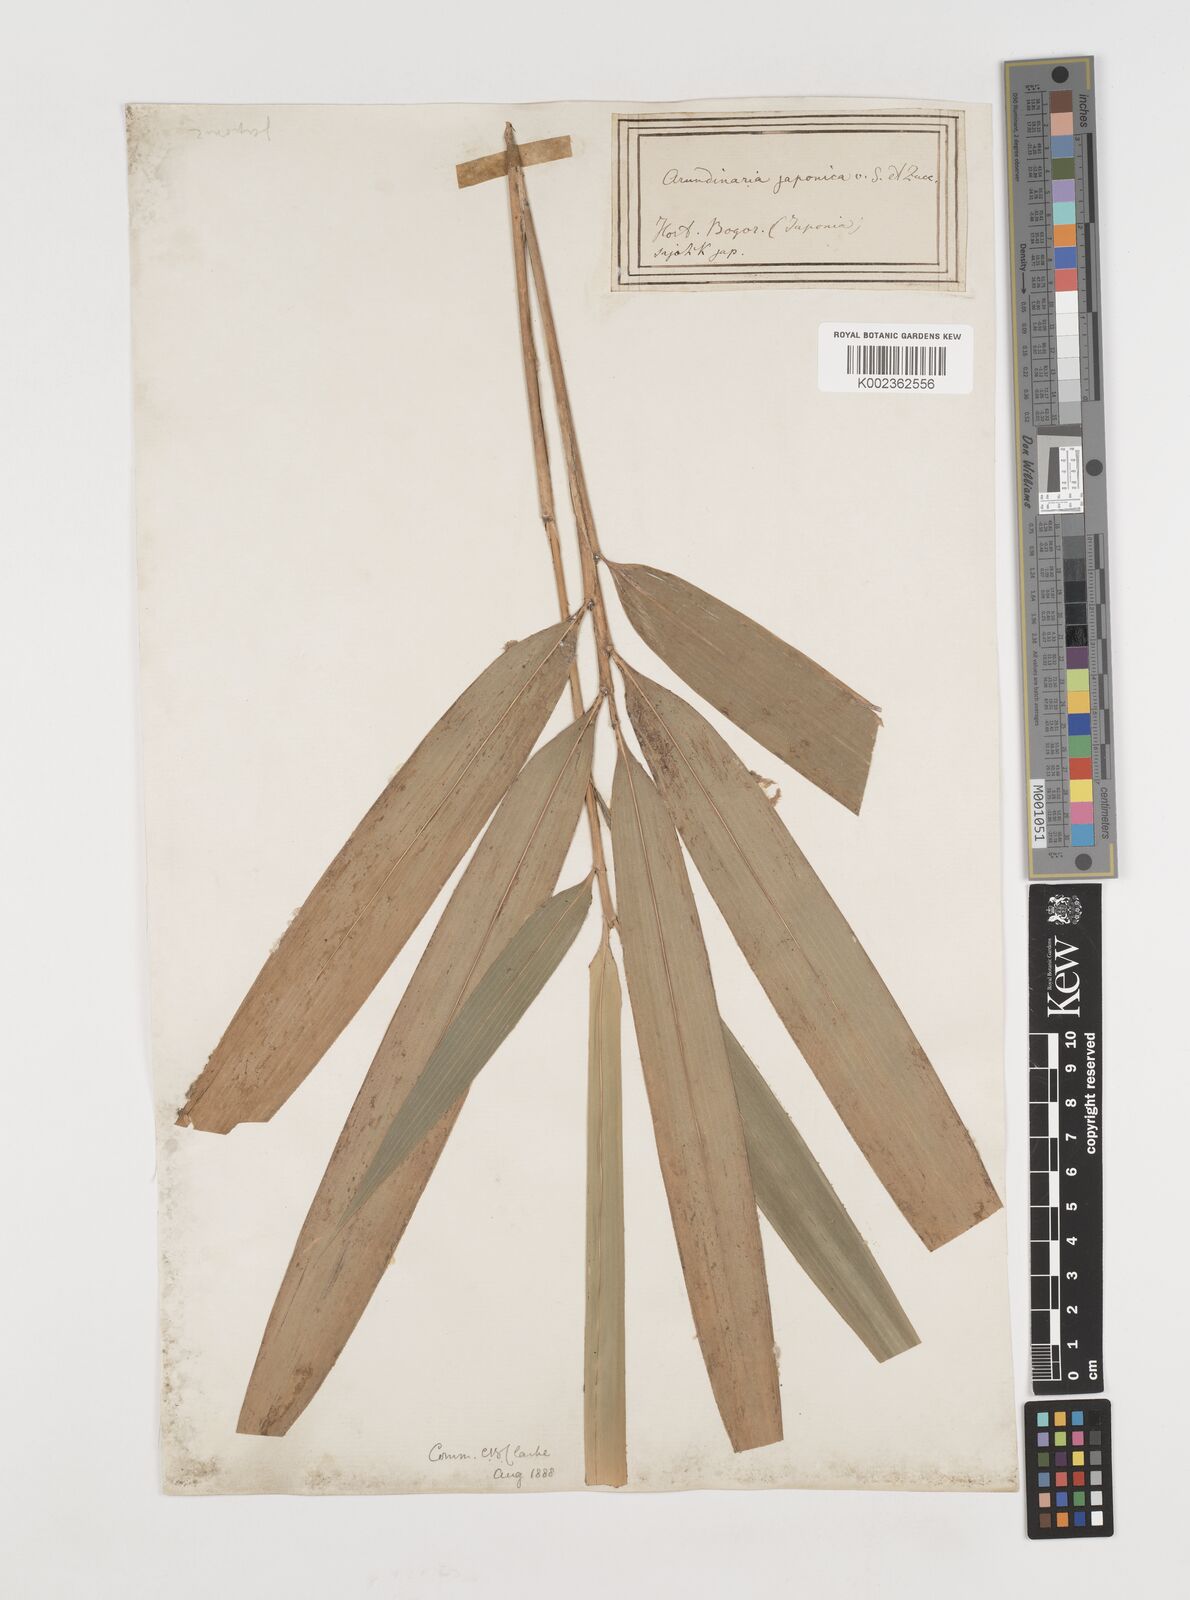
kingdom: Plantae
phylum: Tracheophyta
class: Liliopsida
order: Poales
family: Poaceae
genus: Pseudosasa
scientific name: Pseudosasa japonica
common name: Arrow bamboo
